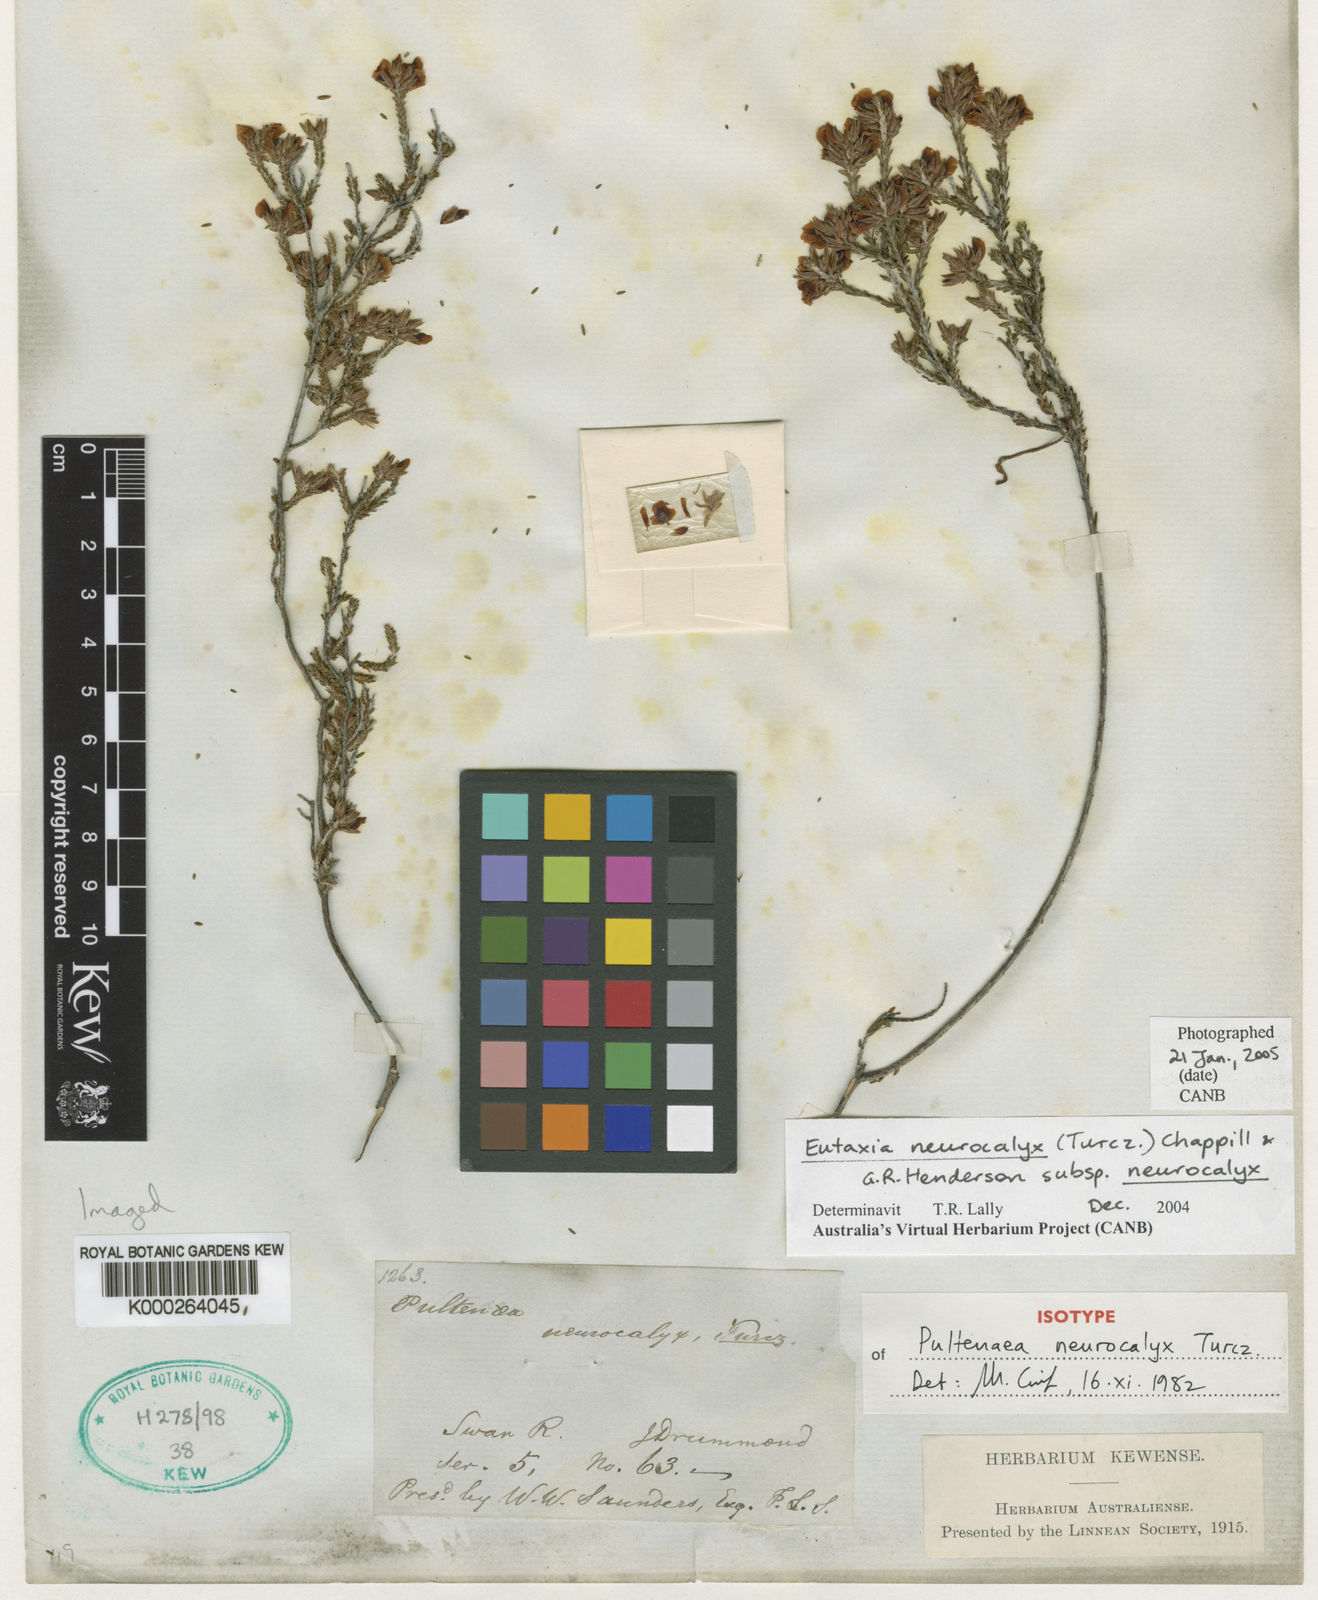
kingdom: Plantae
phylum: Tracheophyta
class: Magnoliopsida
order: Fabales
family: Fabaceae
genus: Eutaxia
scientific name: Eutaxia neurocalyx
